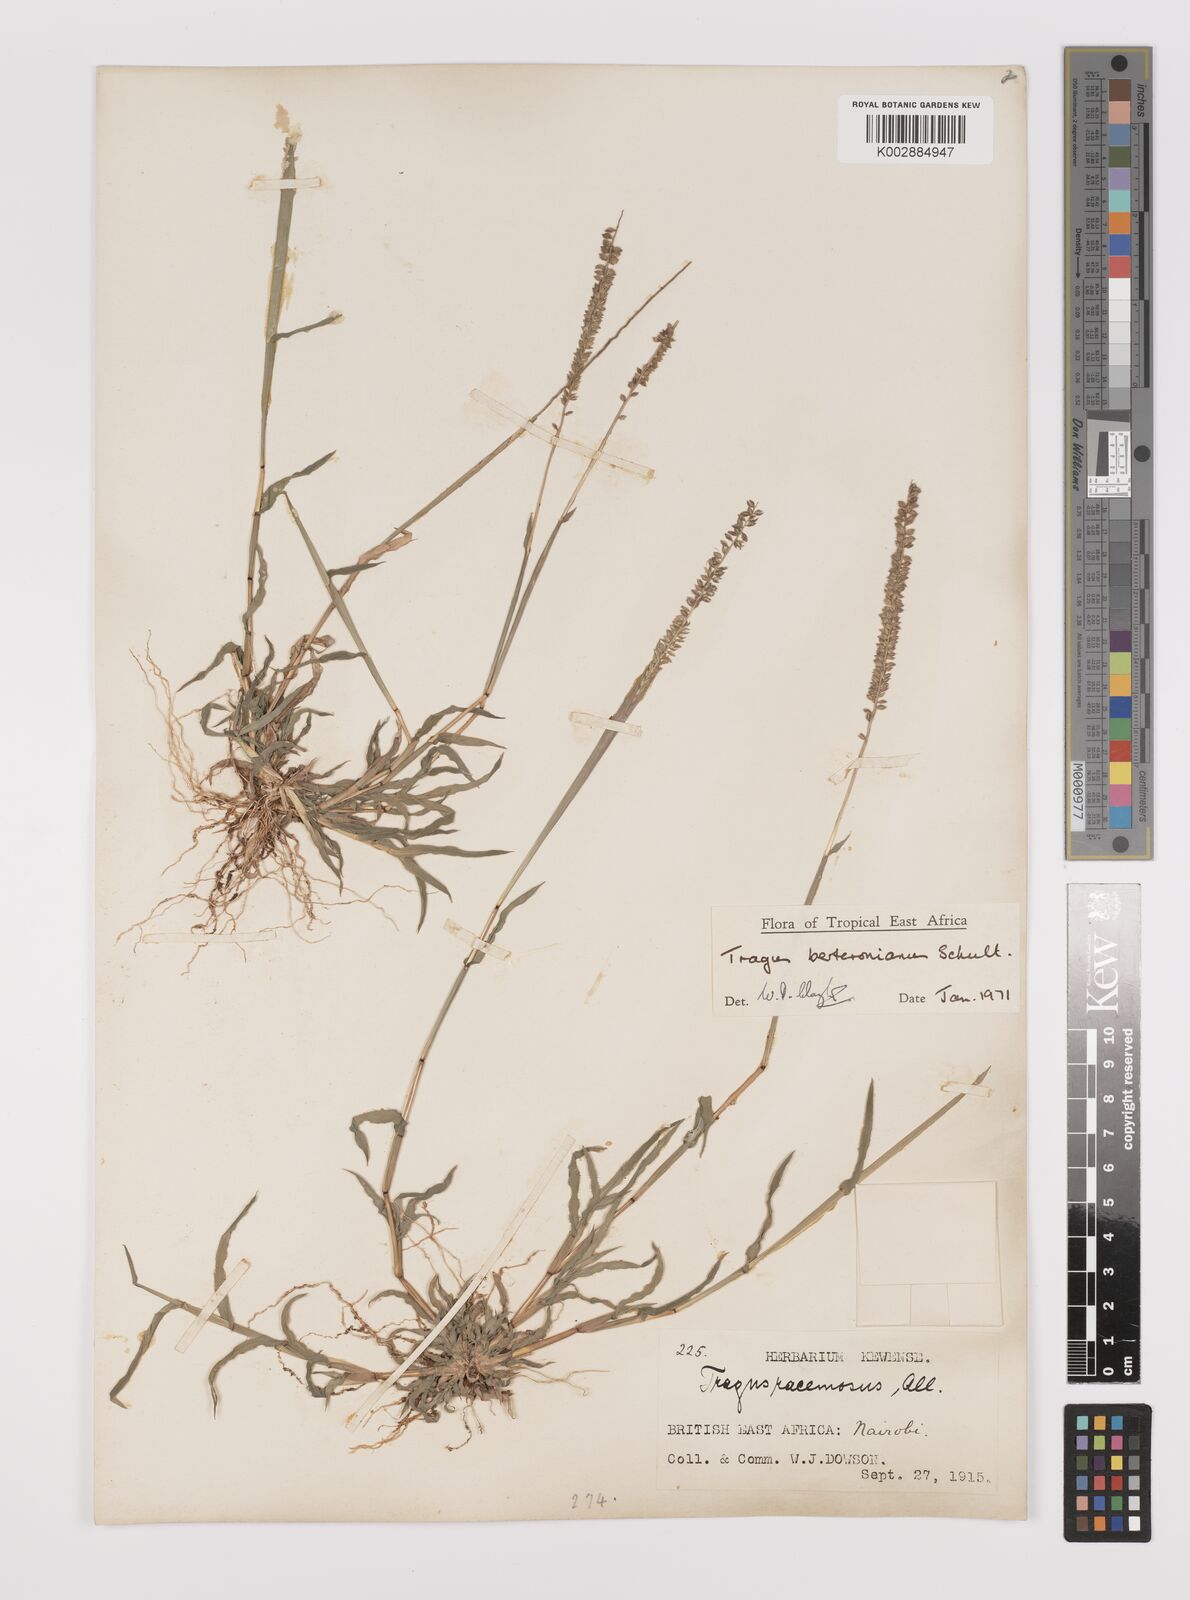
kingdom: Plantae
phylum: Tracheophyta
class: Liliopsida
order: Poales
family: Poaceae
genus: Tragus
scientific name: Tragus berteronianus
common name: African bur-grass
